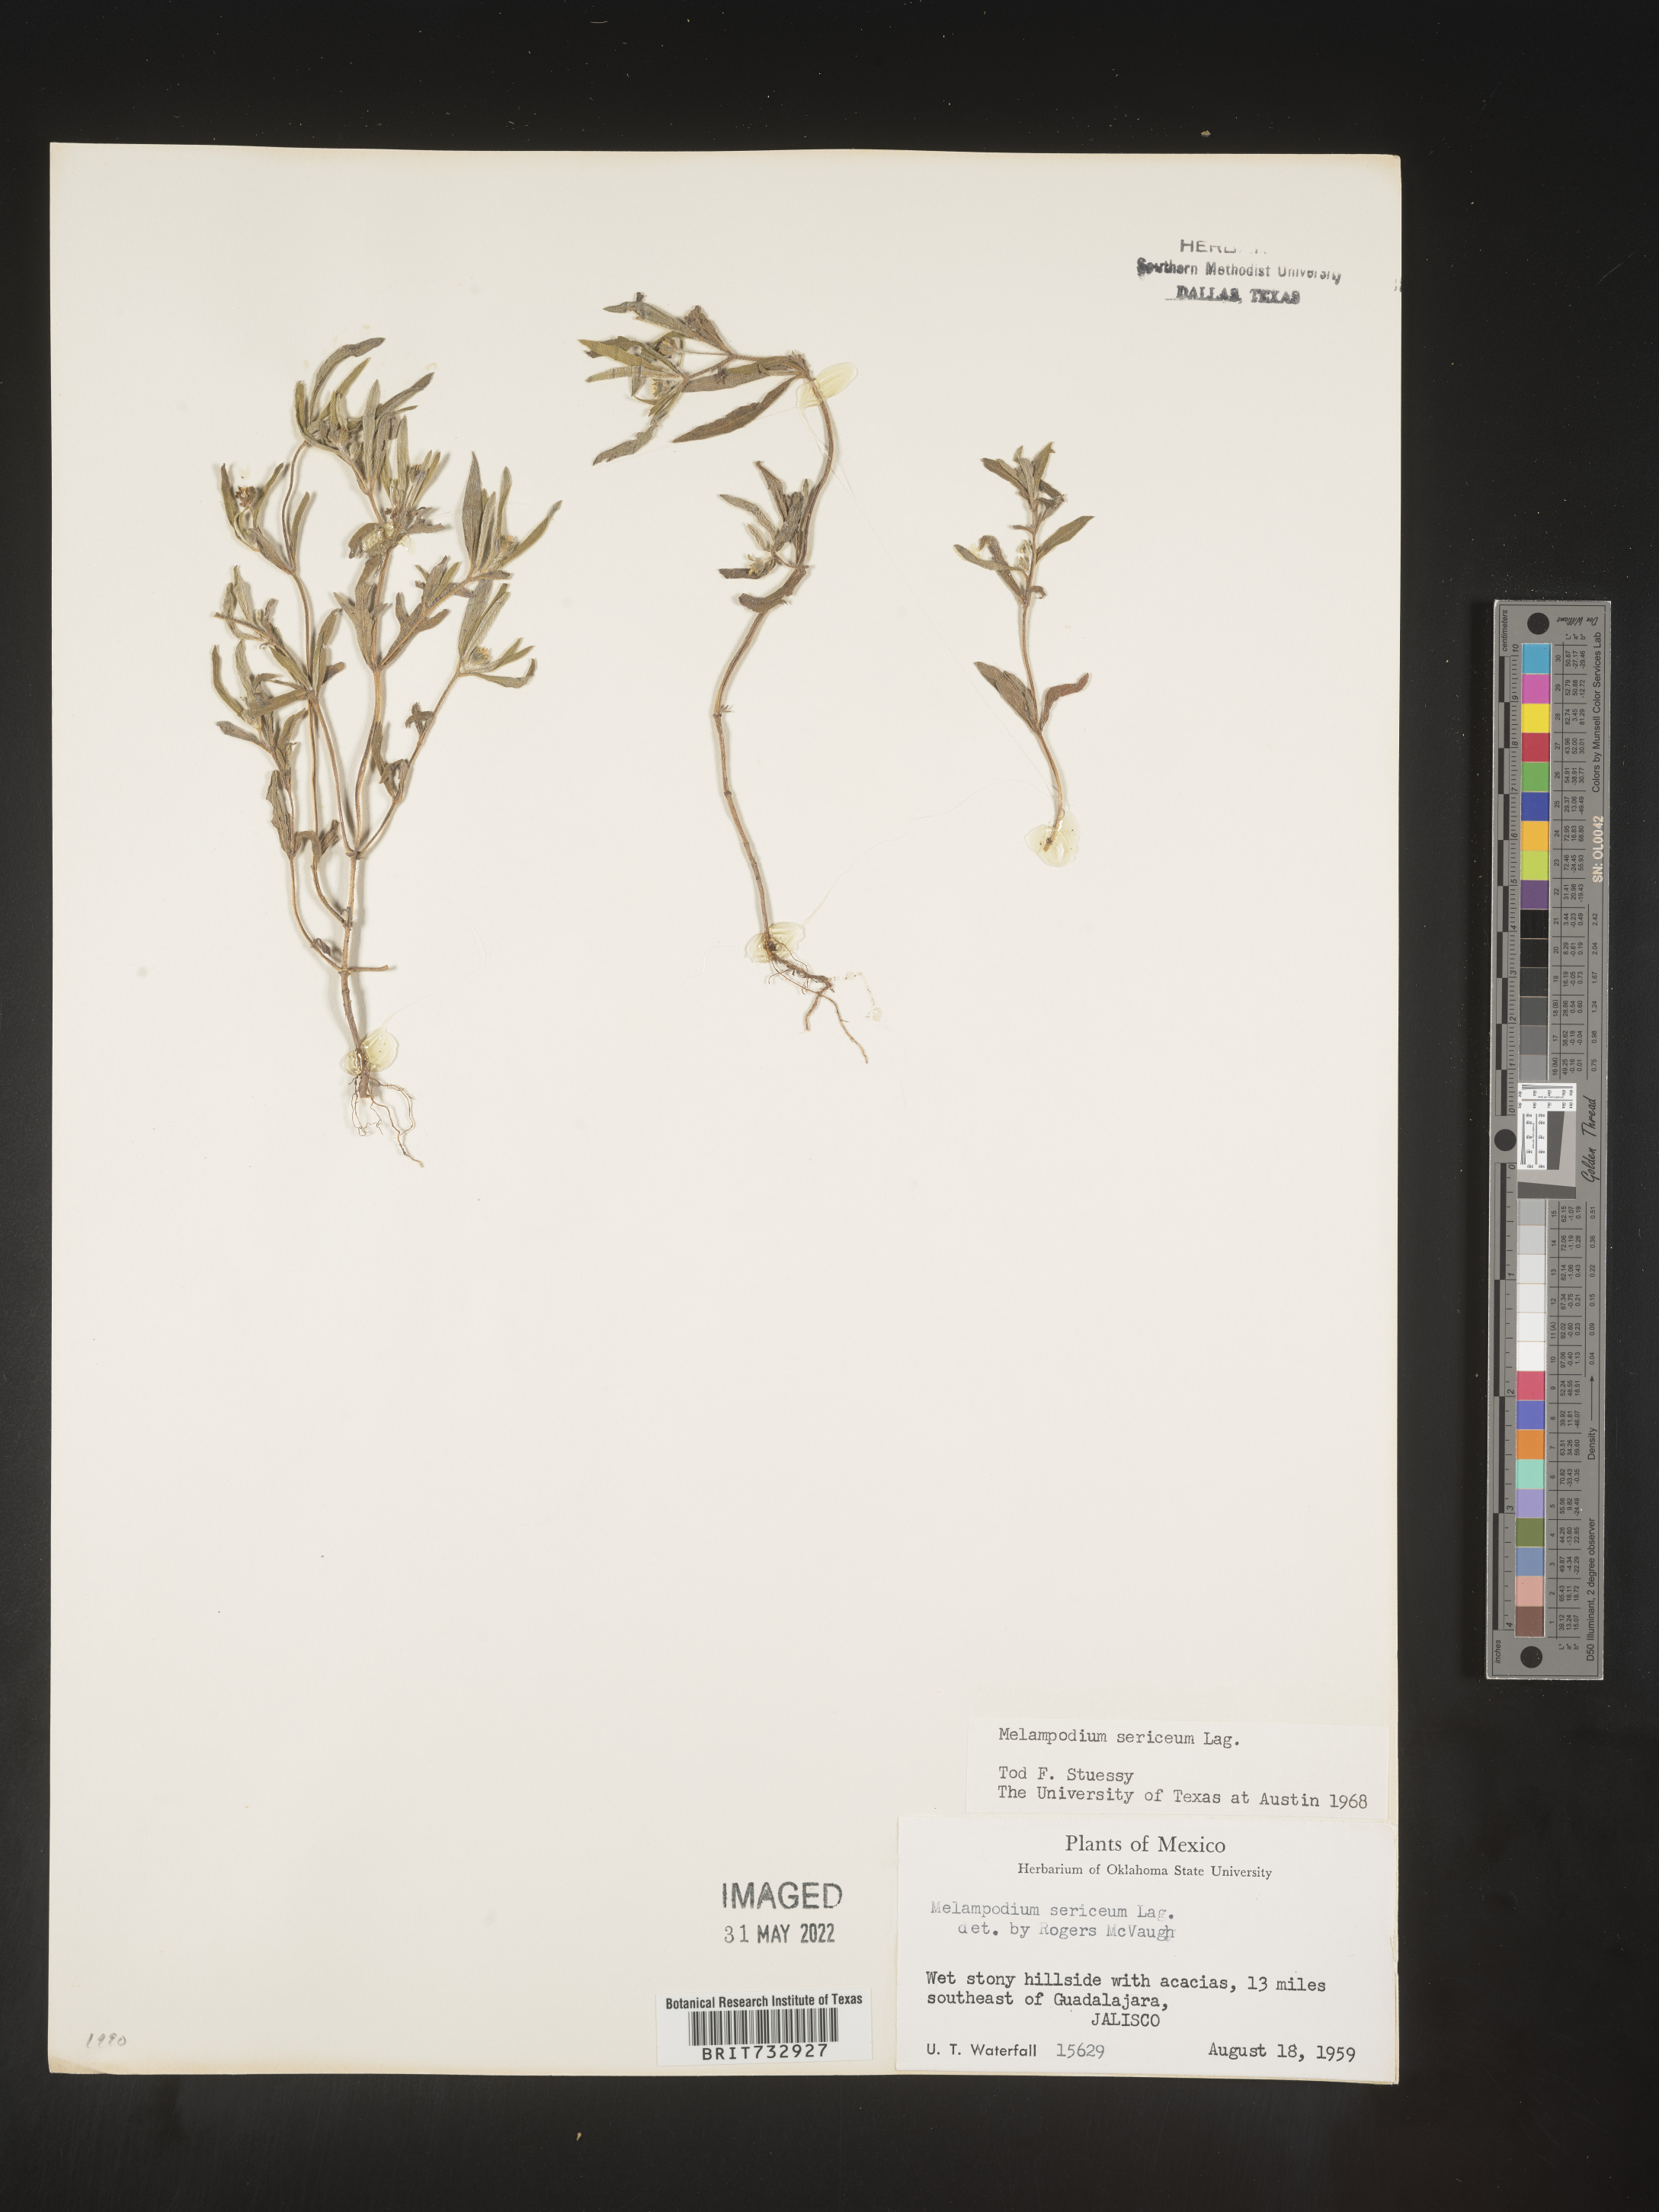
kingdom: Plantae
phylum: Tracheophyta
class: Magnoliopsida
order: Asterales
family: Asteraceae
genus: Melampodium
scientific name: Melampodium
